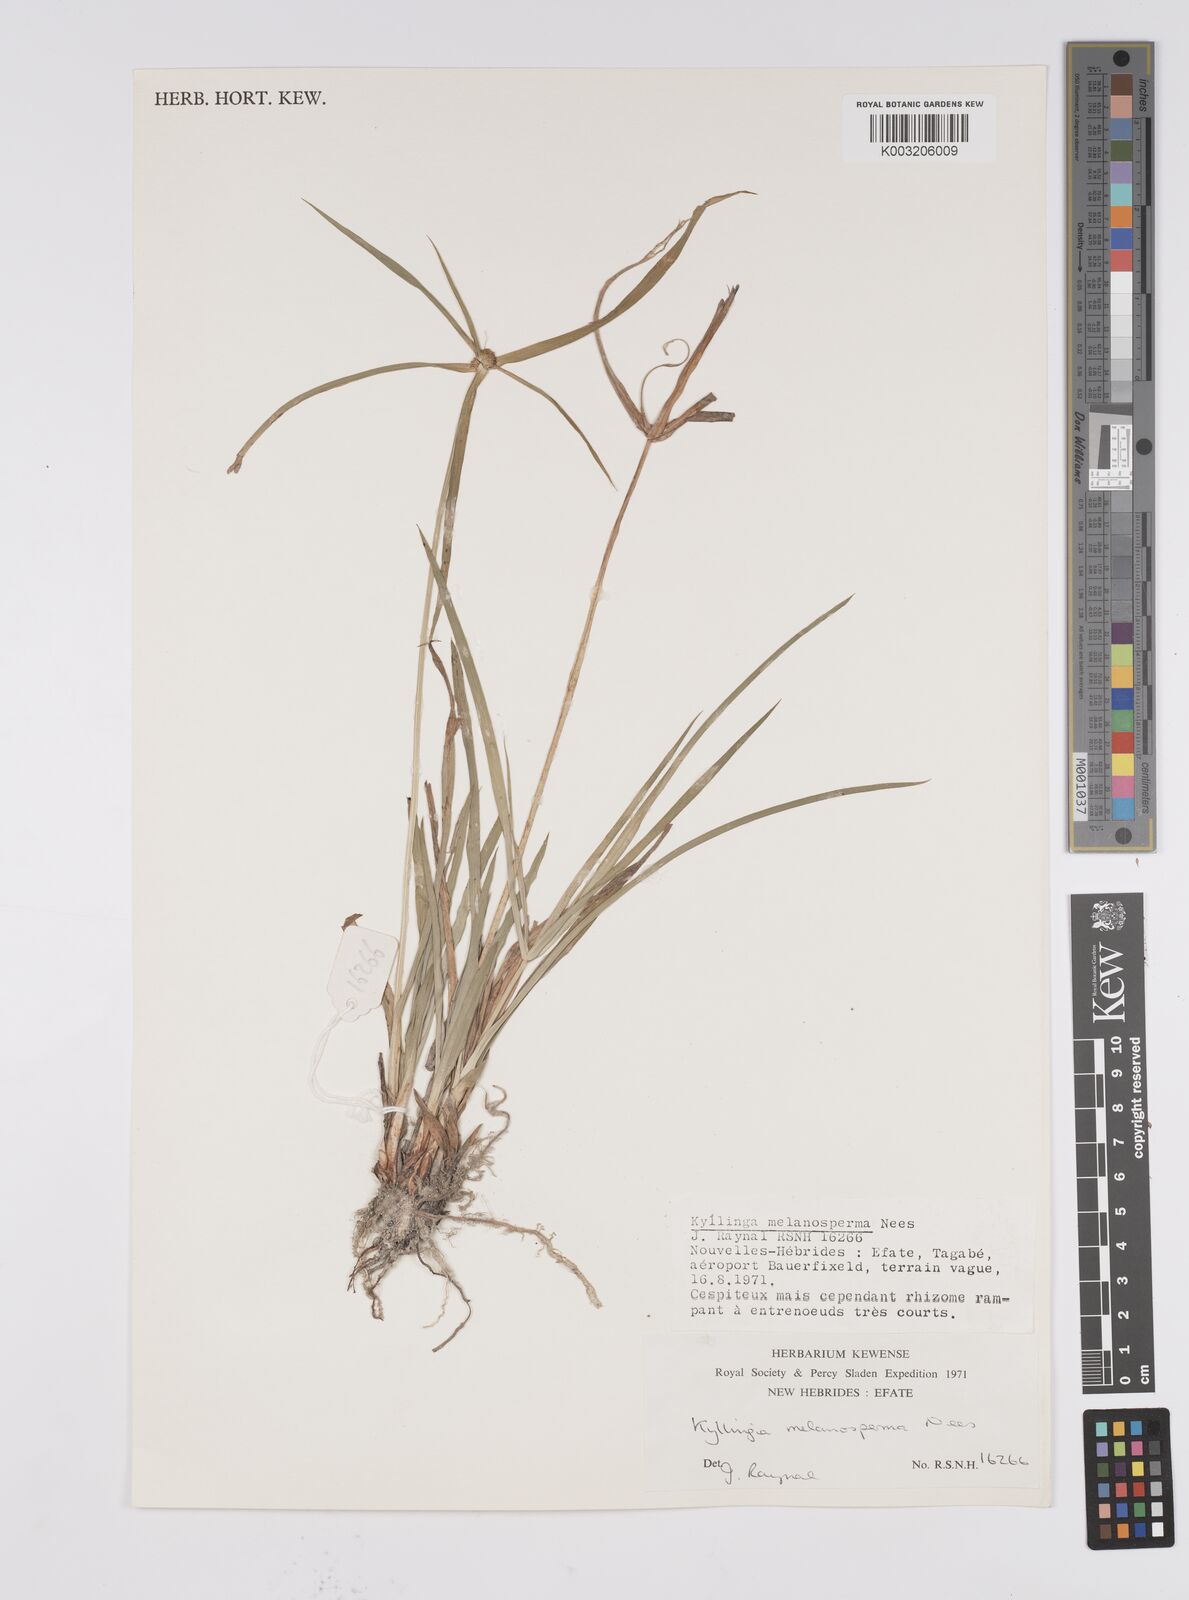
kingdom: Plantae
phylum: Tracheophyta
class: Liliopsida
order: Poales
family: Cyperaceae
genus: Cyperus
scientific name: Cyperus
